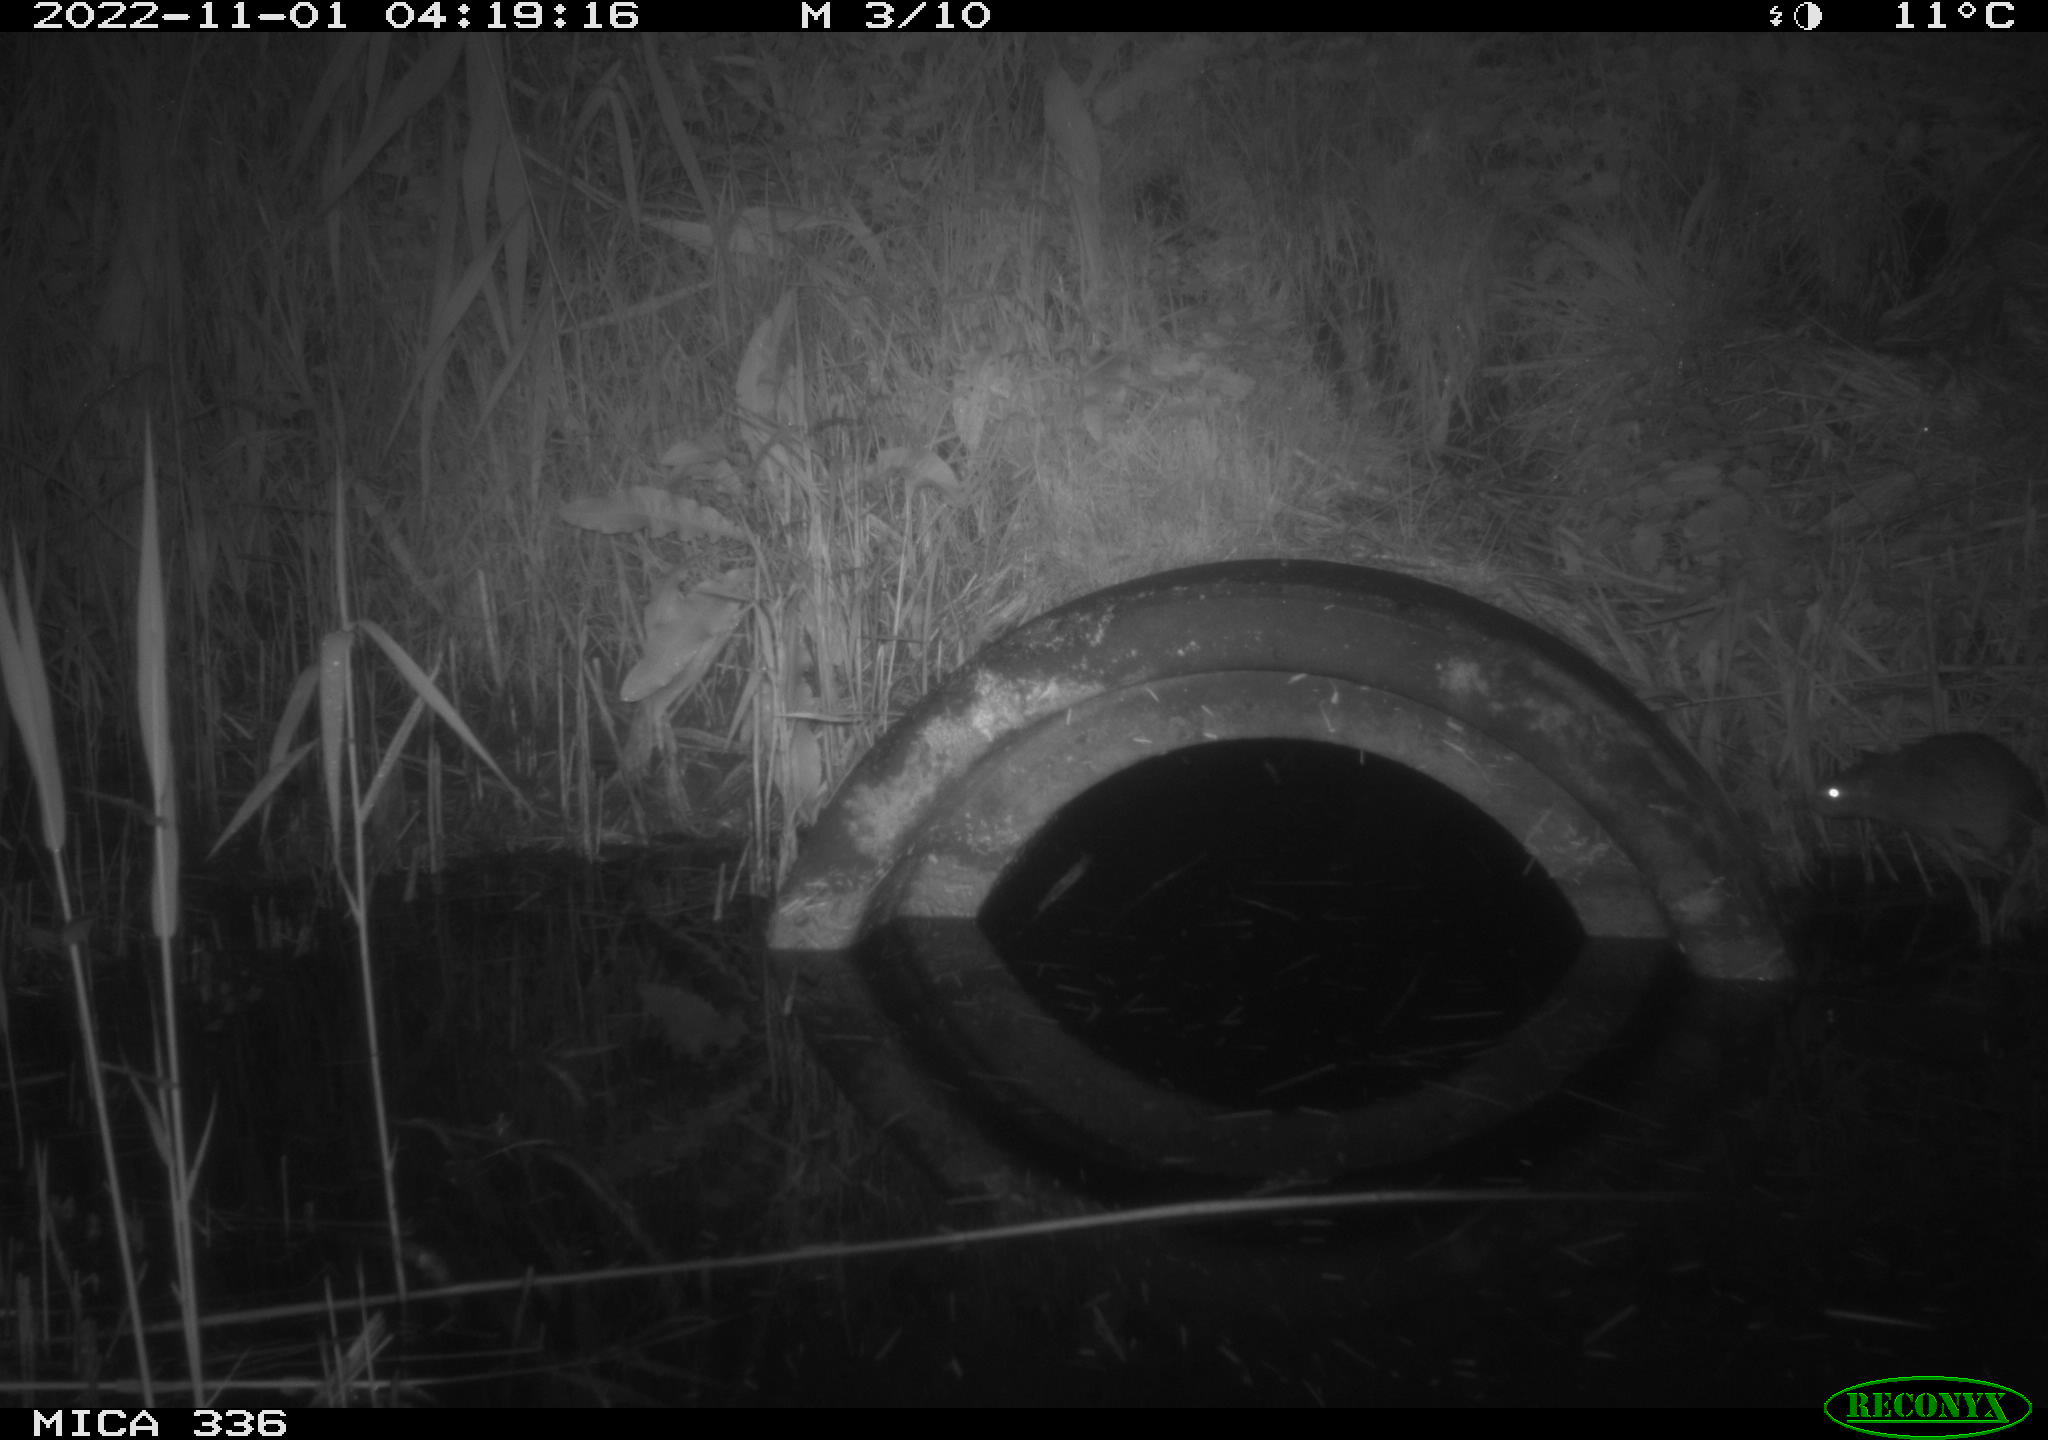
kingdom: Animalia
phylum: Chordata
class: Mammalia
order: Rodentia
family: Muridae
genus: Rattus
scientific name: Rattus norvegicus
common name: Brown rat
